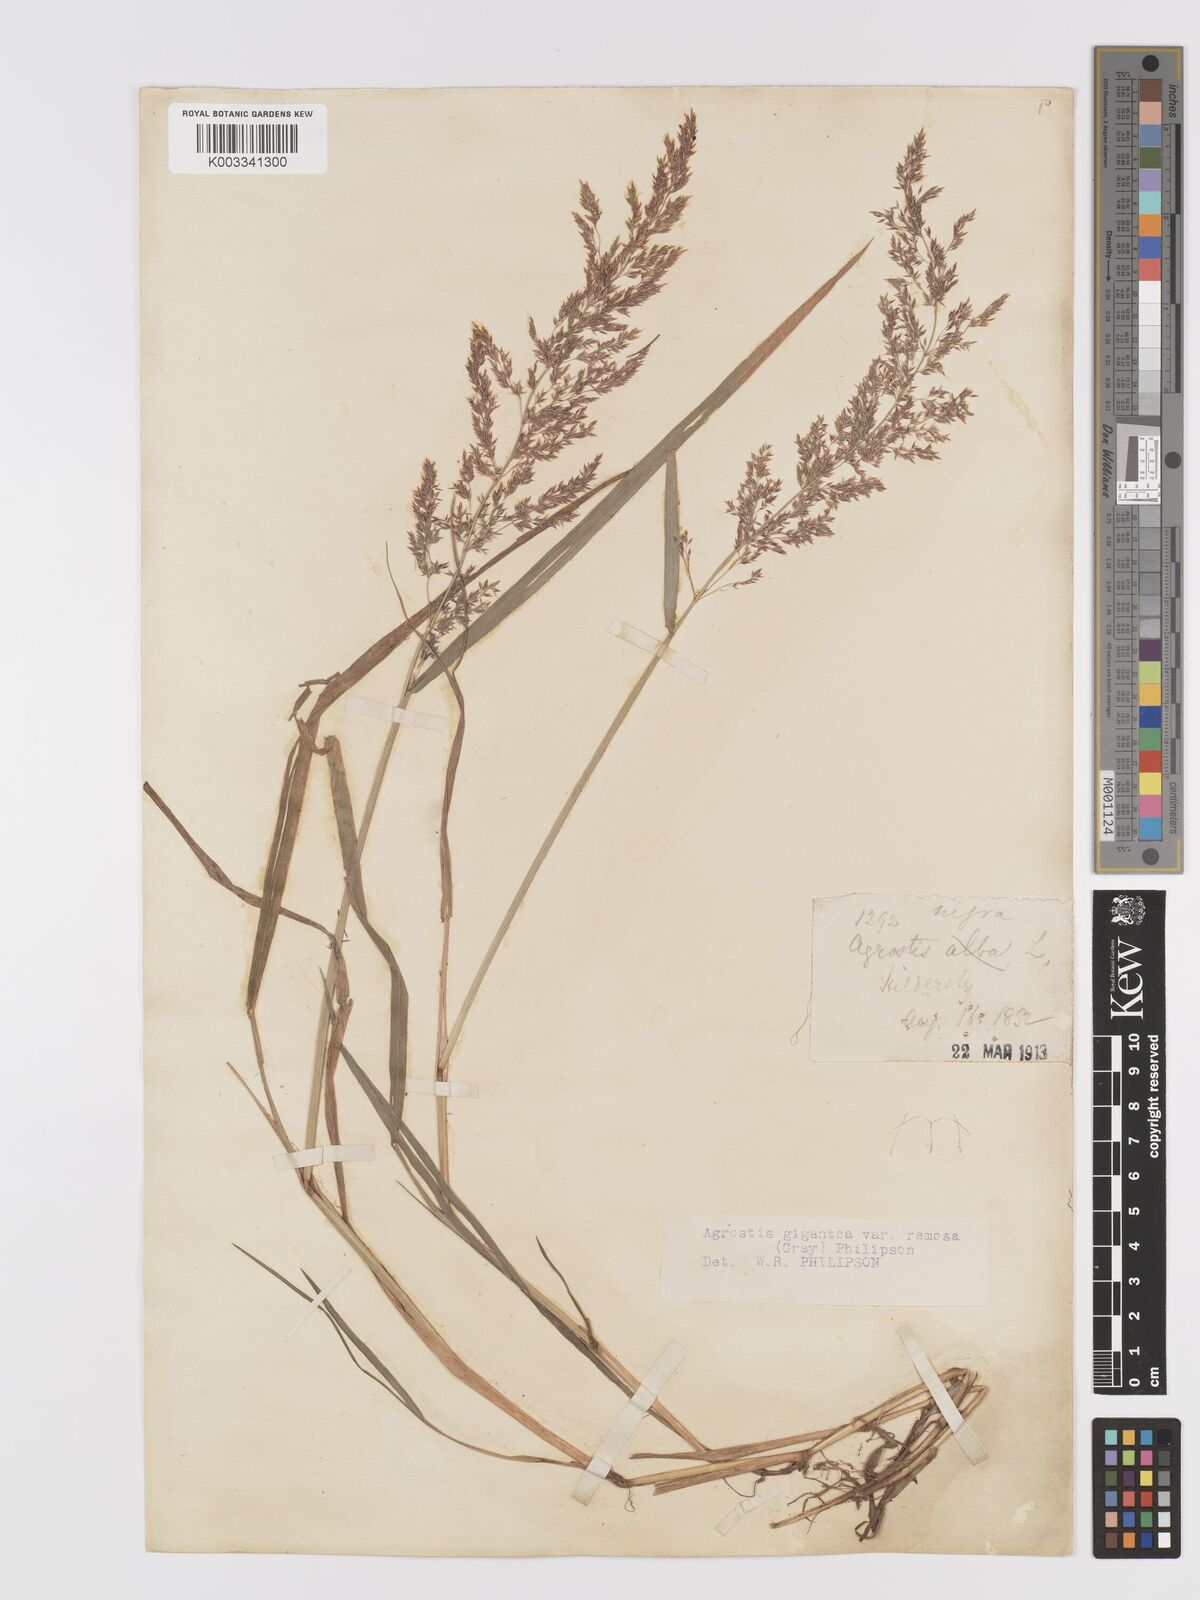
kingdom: Plantae
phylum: Tracheophyta
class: Liliopsida
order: Poales
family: Poaceae
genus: Agrostis
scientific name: Agrostis gigantea
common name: Black bent
